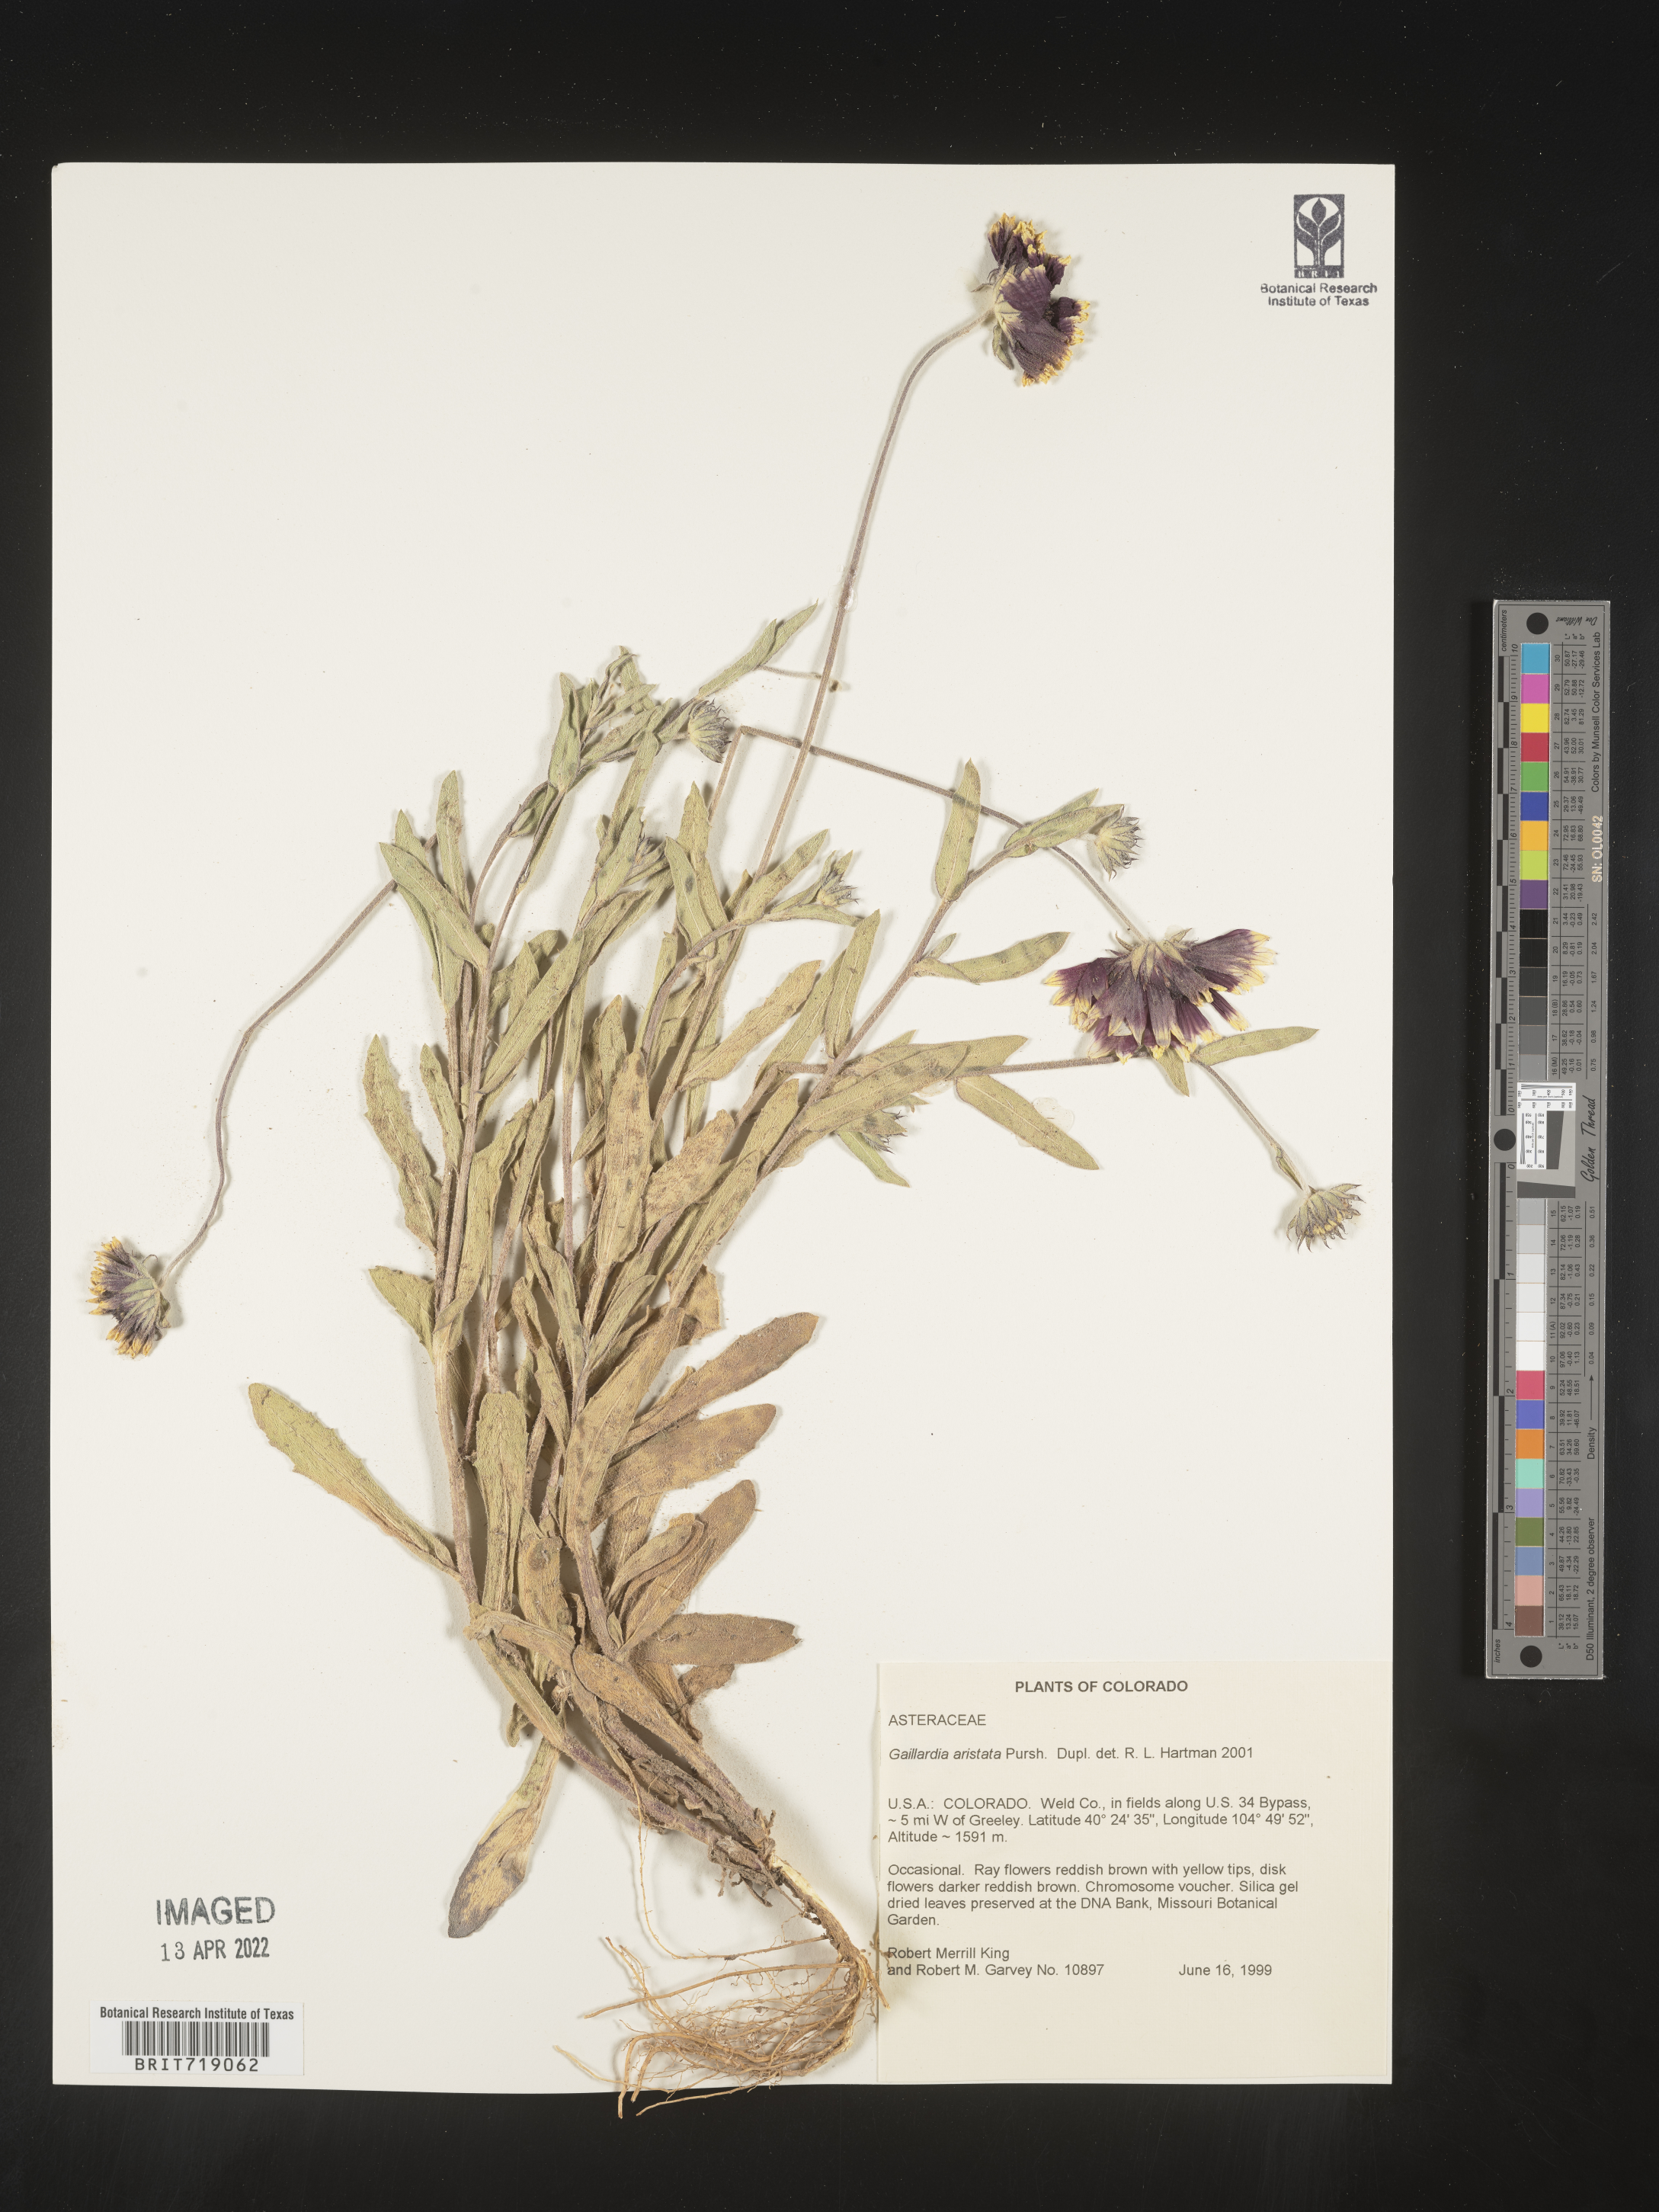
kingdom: Plantae
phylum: Tracheophyta
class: Magnoliopsida
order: Asterales
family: Asteraceae
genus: Gaillardia
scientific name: Gaillardia aristata
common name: Blanket-flower
